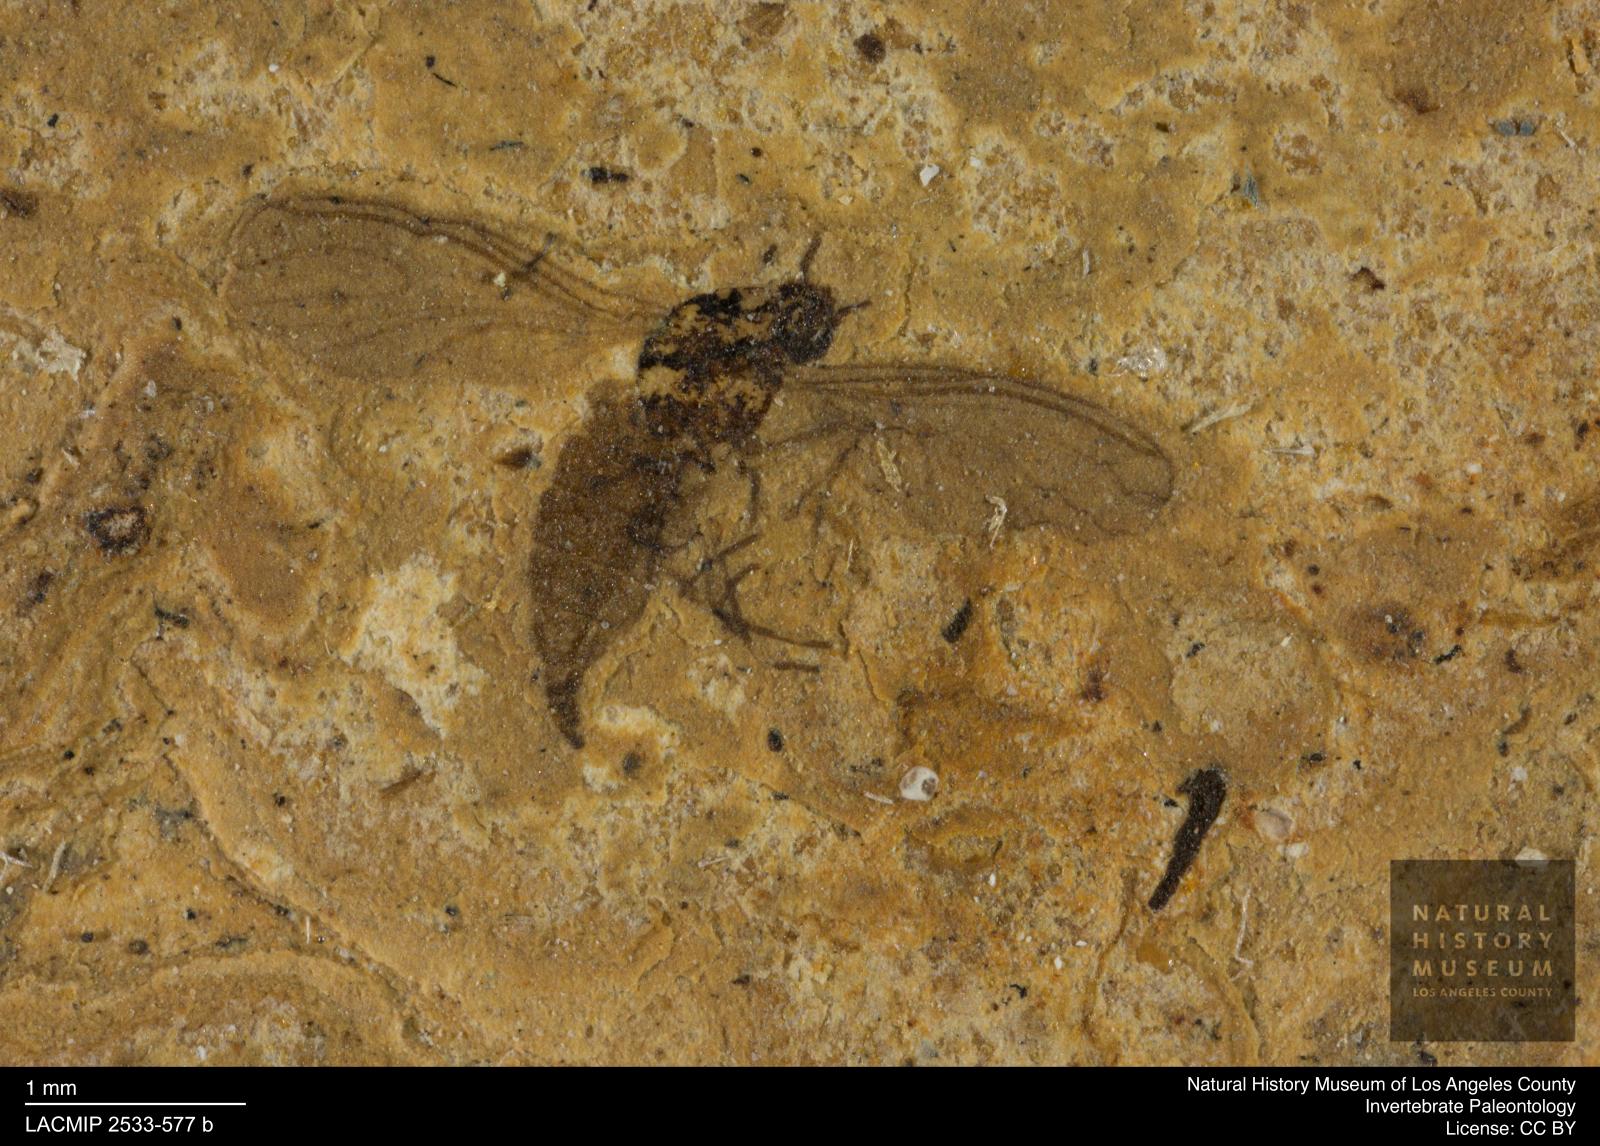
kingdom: Animalia
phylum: Arthropoda
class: Insecta
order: Diptera
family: Sciaridae
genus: Sciara
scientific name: Sciara femuralis
